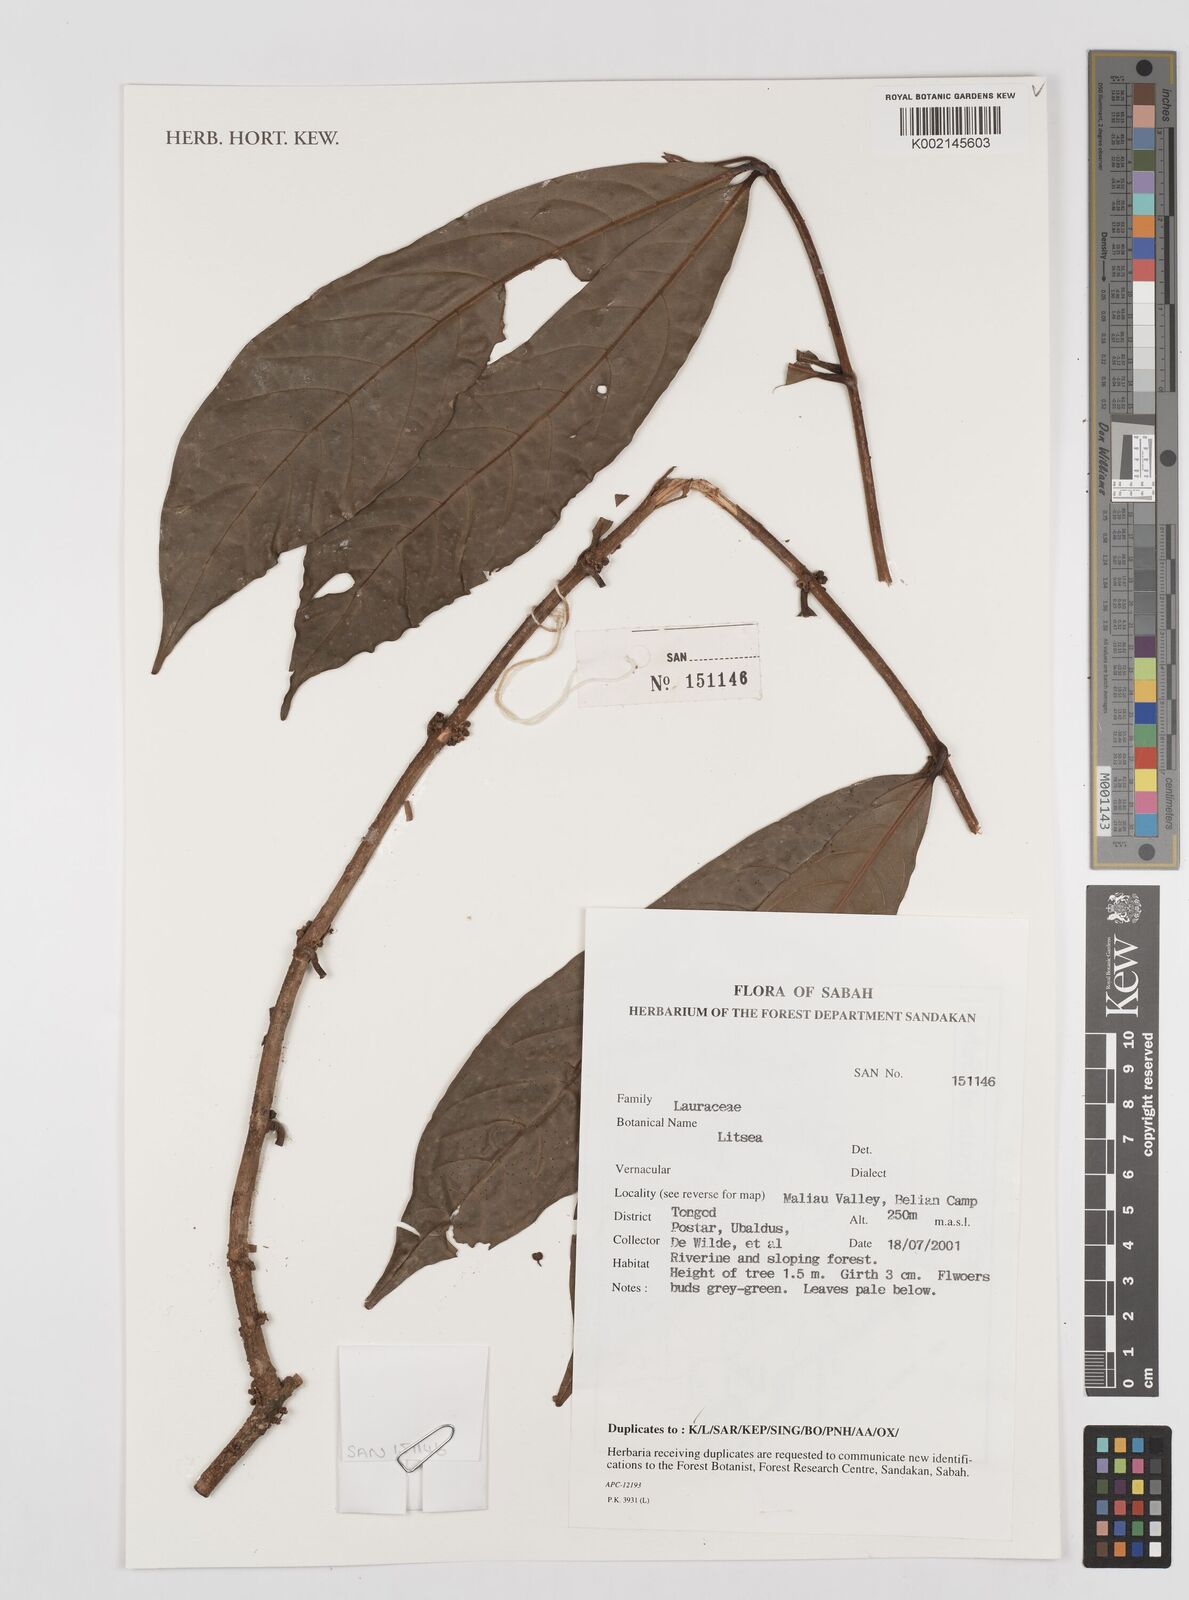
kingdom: Plantae
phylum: Tracheophyta
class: Magnoliopsida
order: Laurales
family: Lauraceae
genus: Litsea
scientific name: Litsea
